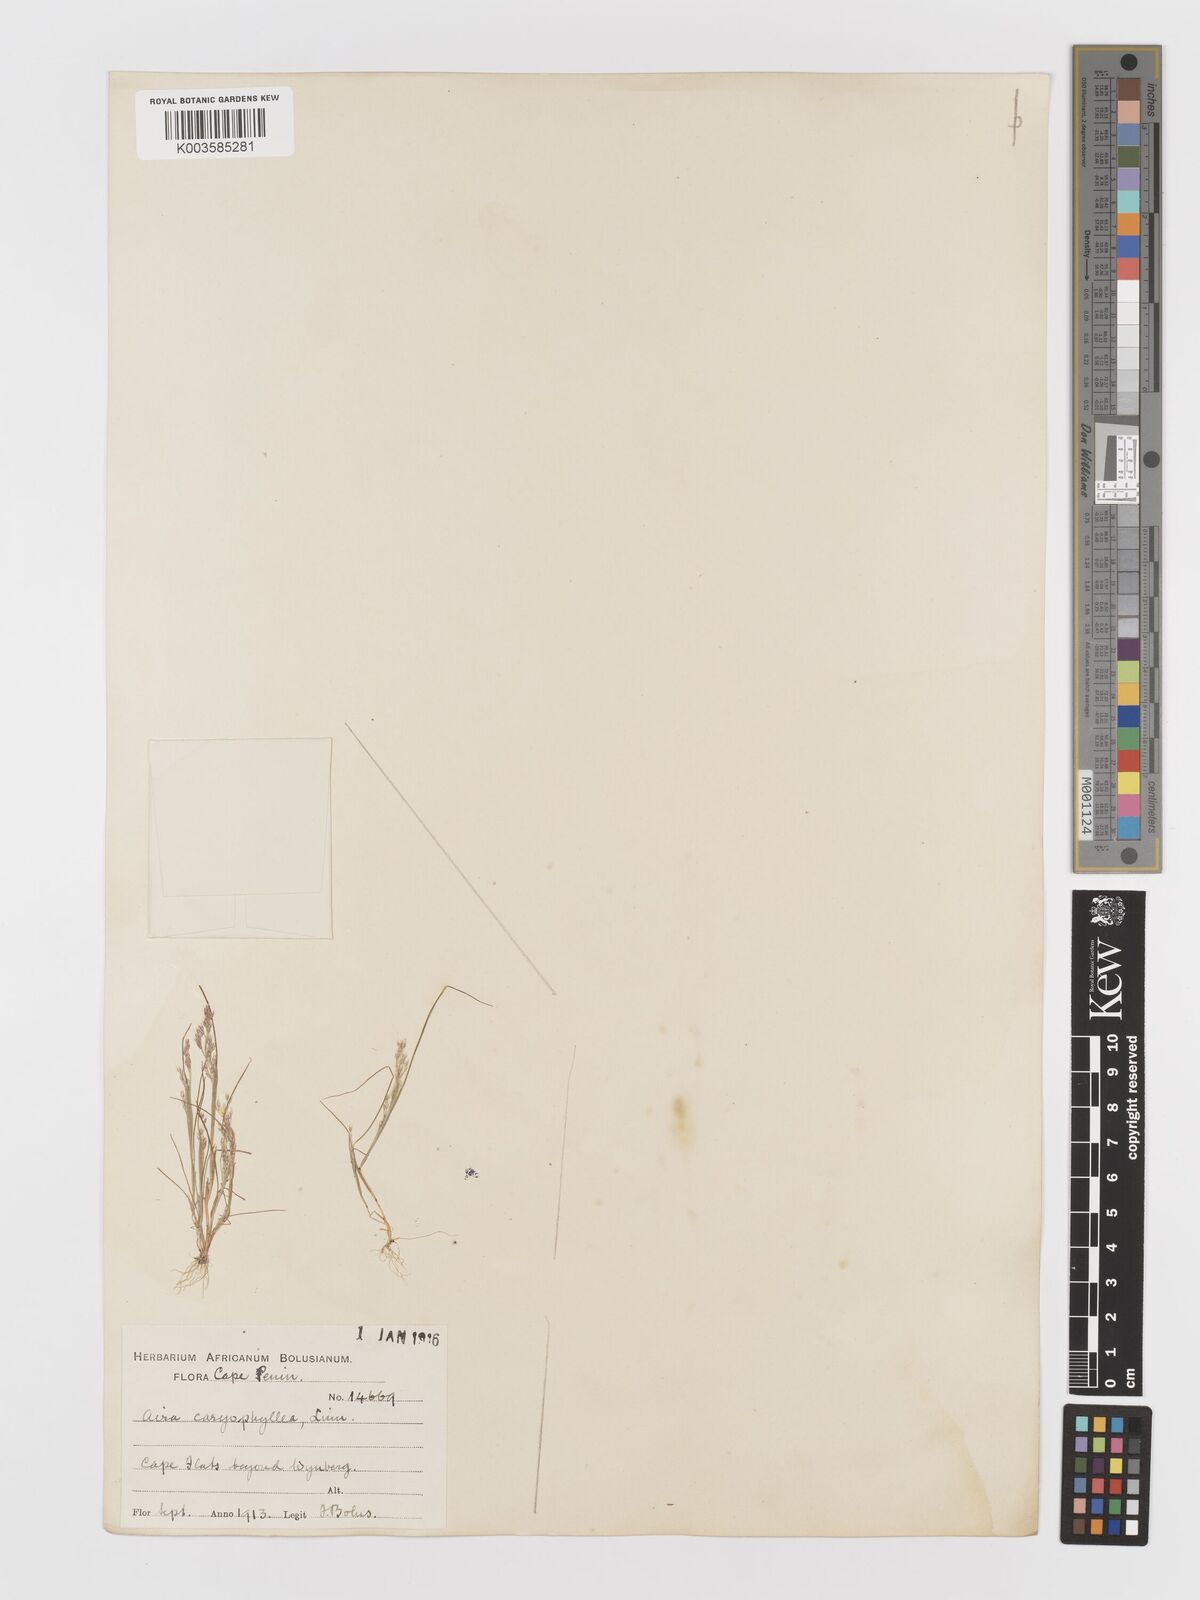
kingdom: Plantae
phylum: Tracheophyta
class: Liliopsida
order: Poales
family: Poaceae
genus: Aira
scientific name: Aira cupaniana
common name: Silver hairgrass
